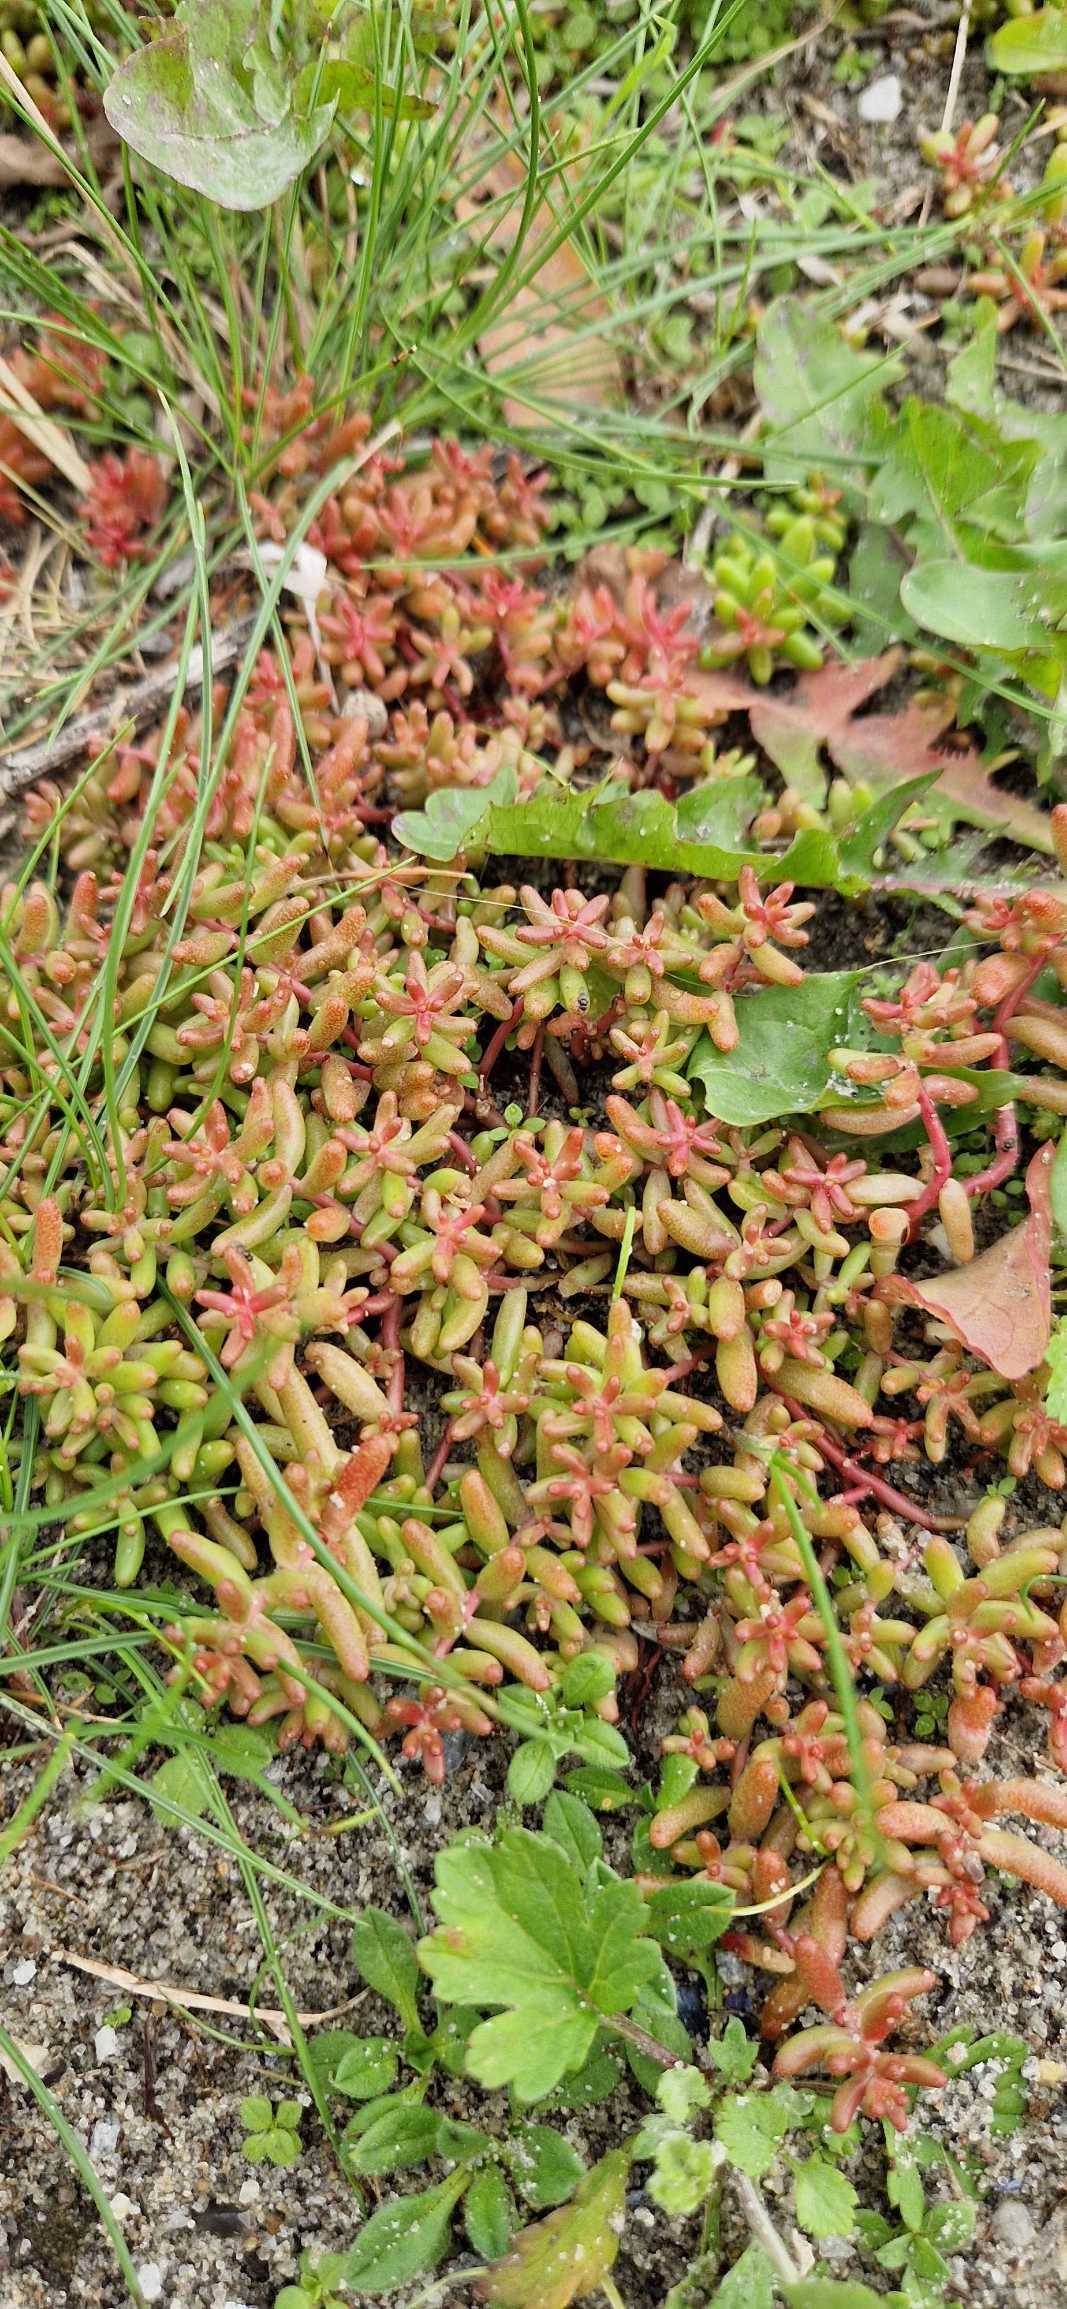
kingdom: Plantae
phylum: Tracheophyta
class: Magnoliopsida
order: Saxifragales
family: Crassulaceae
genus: Sedum
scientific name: Sedum album
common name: Hvid stenurt
